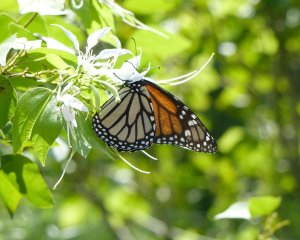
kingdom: Animalia
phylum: Arthropoda
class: Insecta
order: Lepidoptera
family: Nymphalidae
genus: Danaus
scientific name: Danaus plexippus
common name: Monarch
